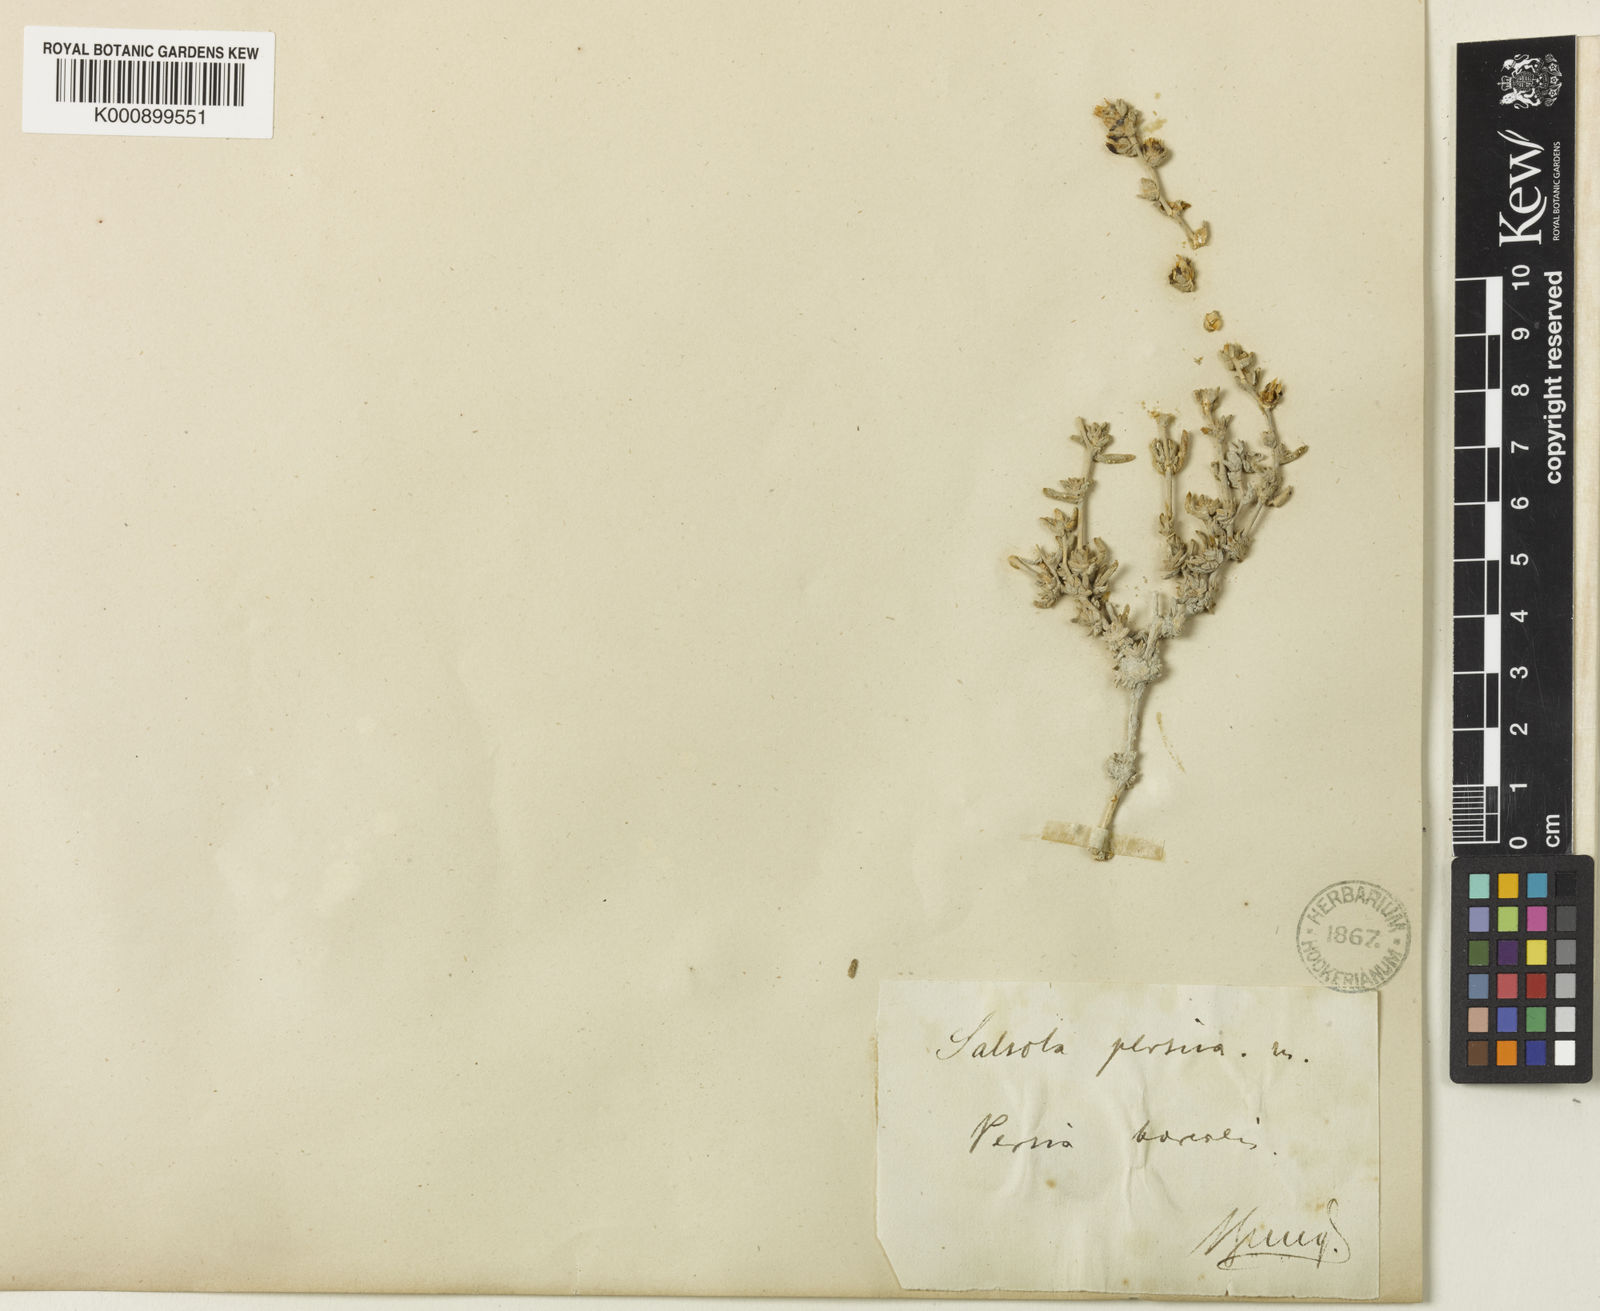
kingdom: Plantae
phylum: Tracheophyta
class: Magnoliopsida
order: Caryophyllales
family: Amaranthaceae
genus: Caroxylon
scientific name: Caroxylon persicum
